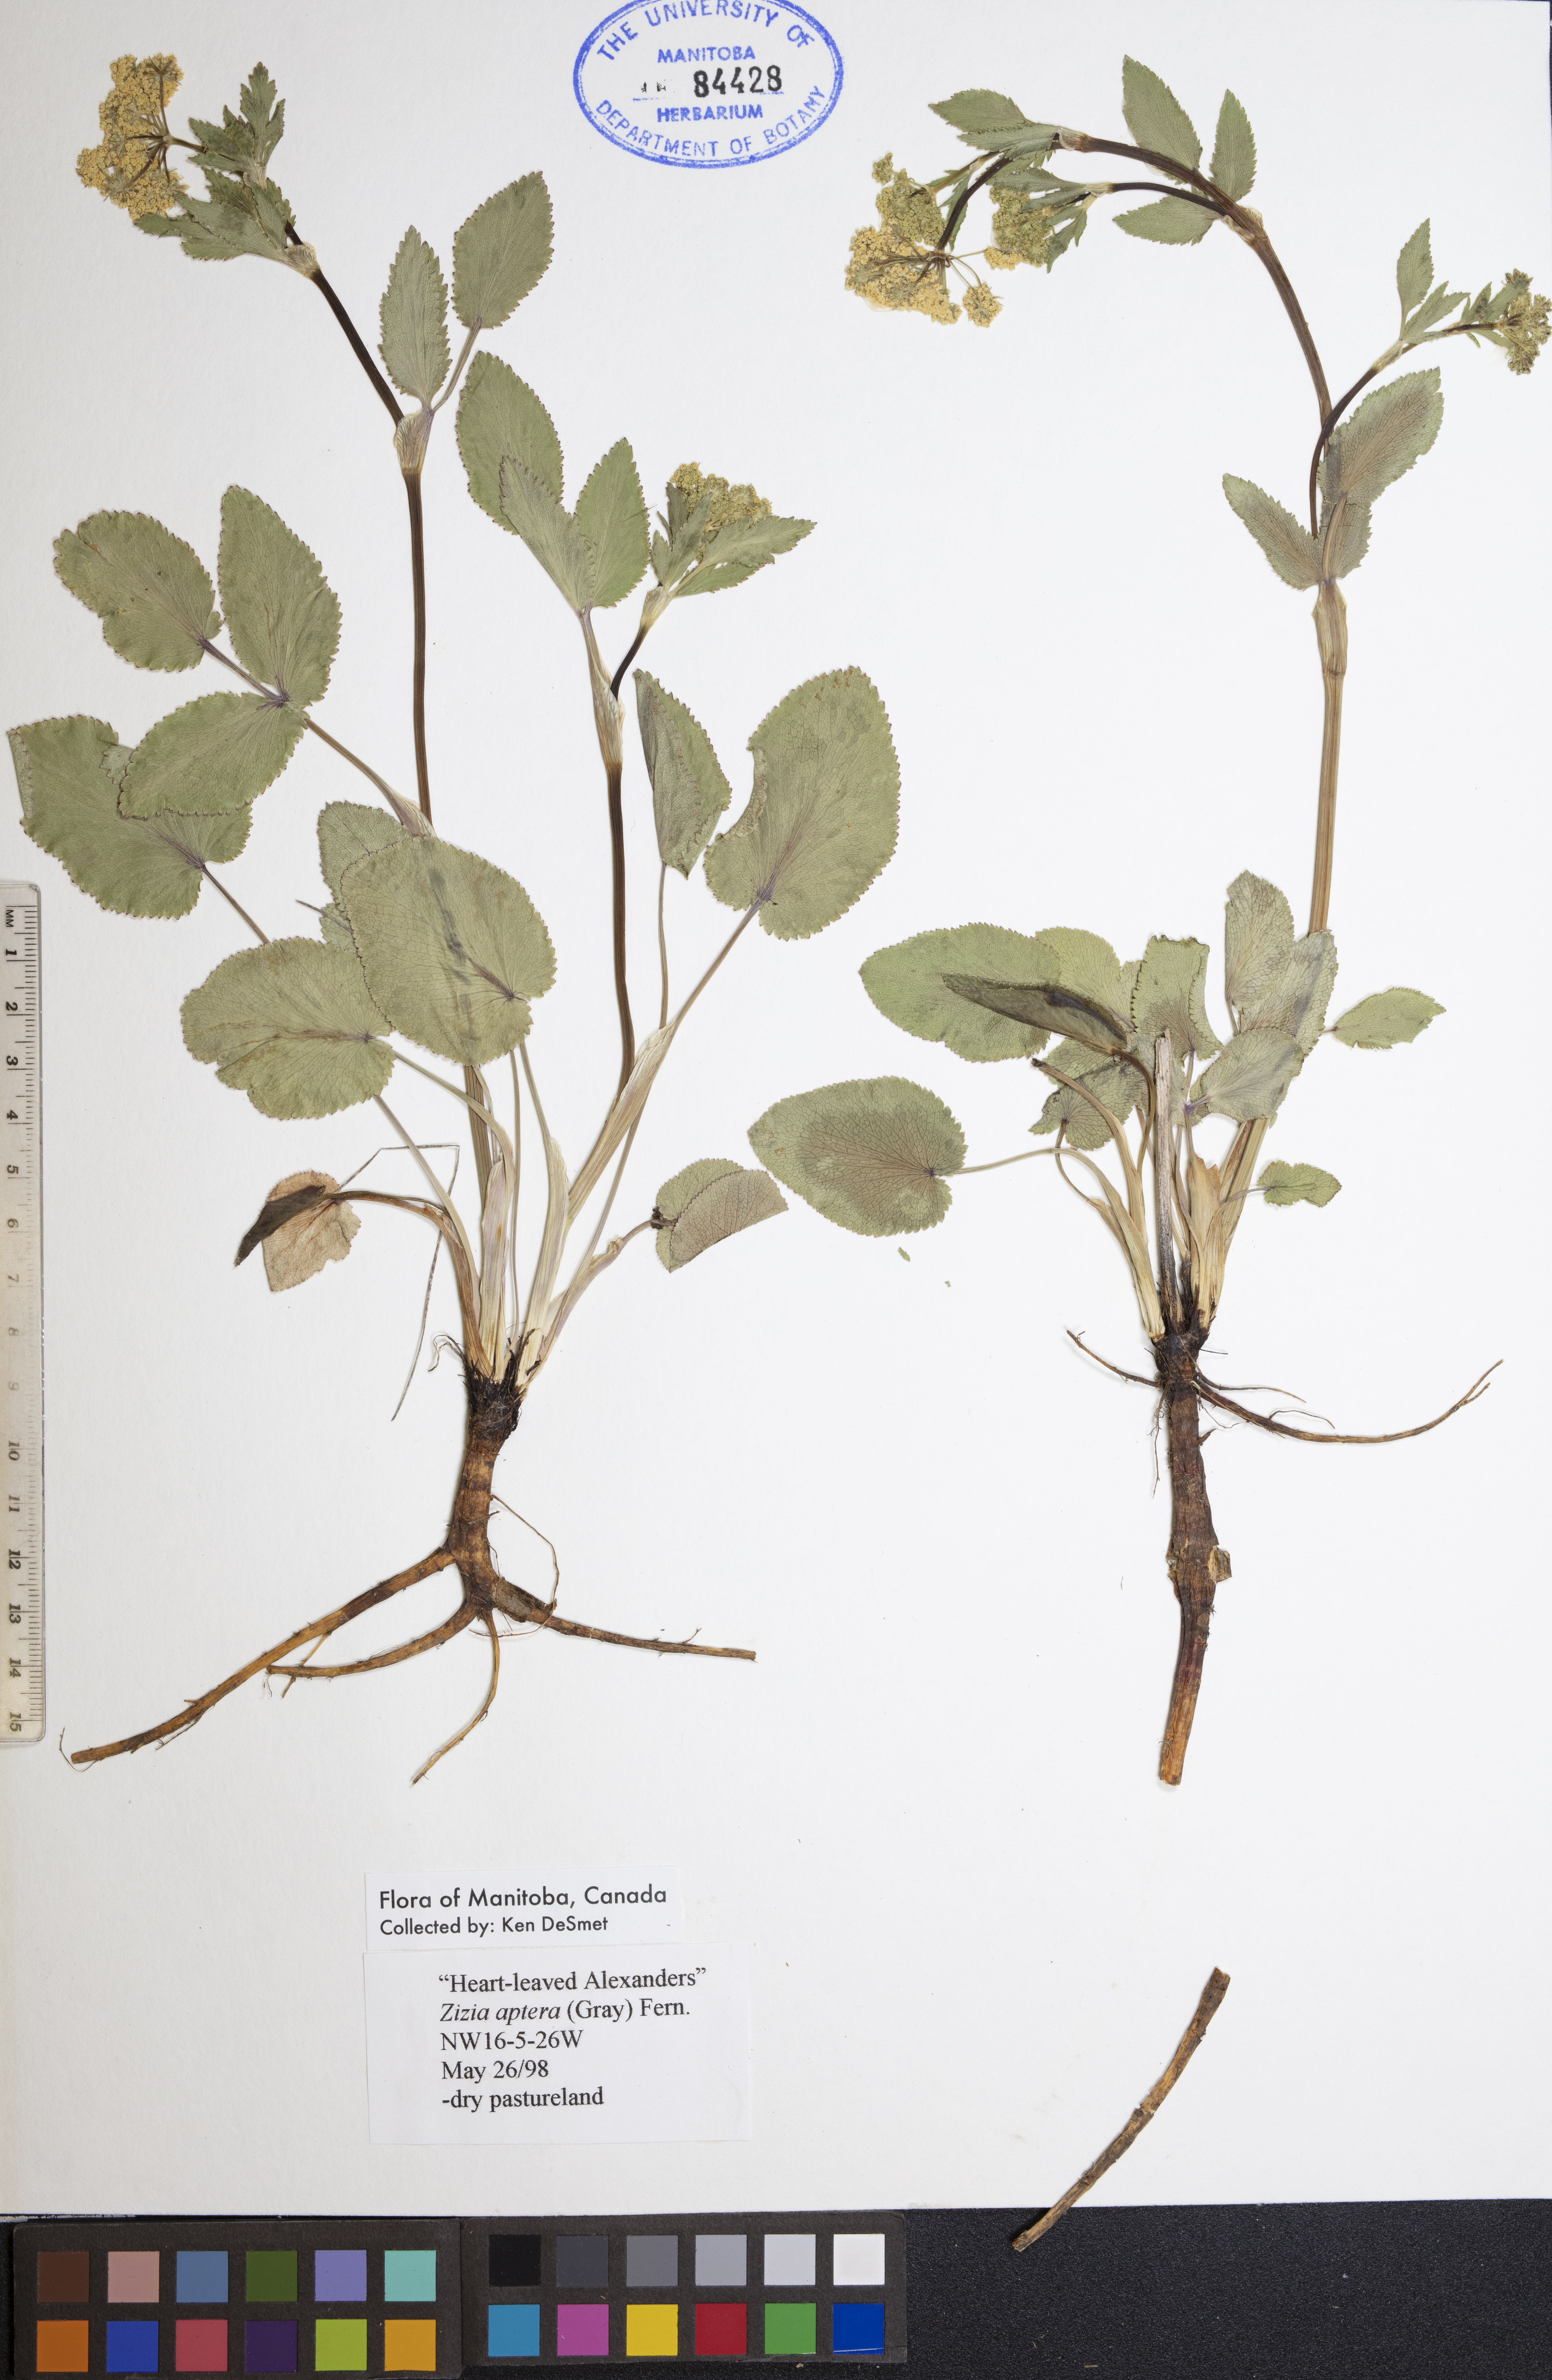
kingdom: Plantae
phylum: Tracheophyta
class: Magnoliopsida
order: Apiales
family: Apiaceae
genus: Zizia
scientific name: Zizia aptera
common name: Heart-leaved alexanders
